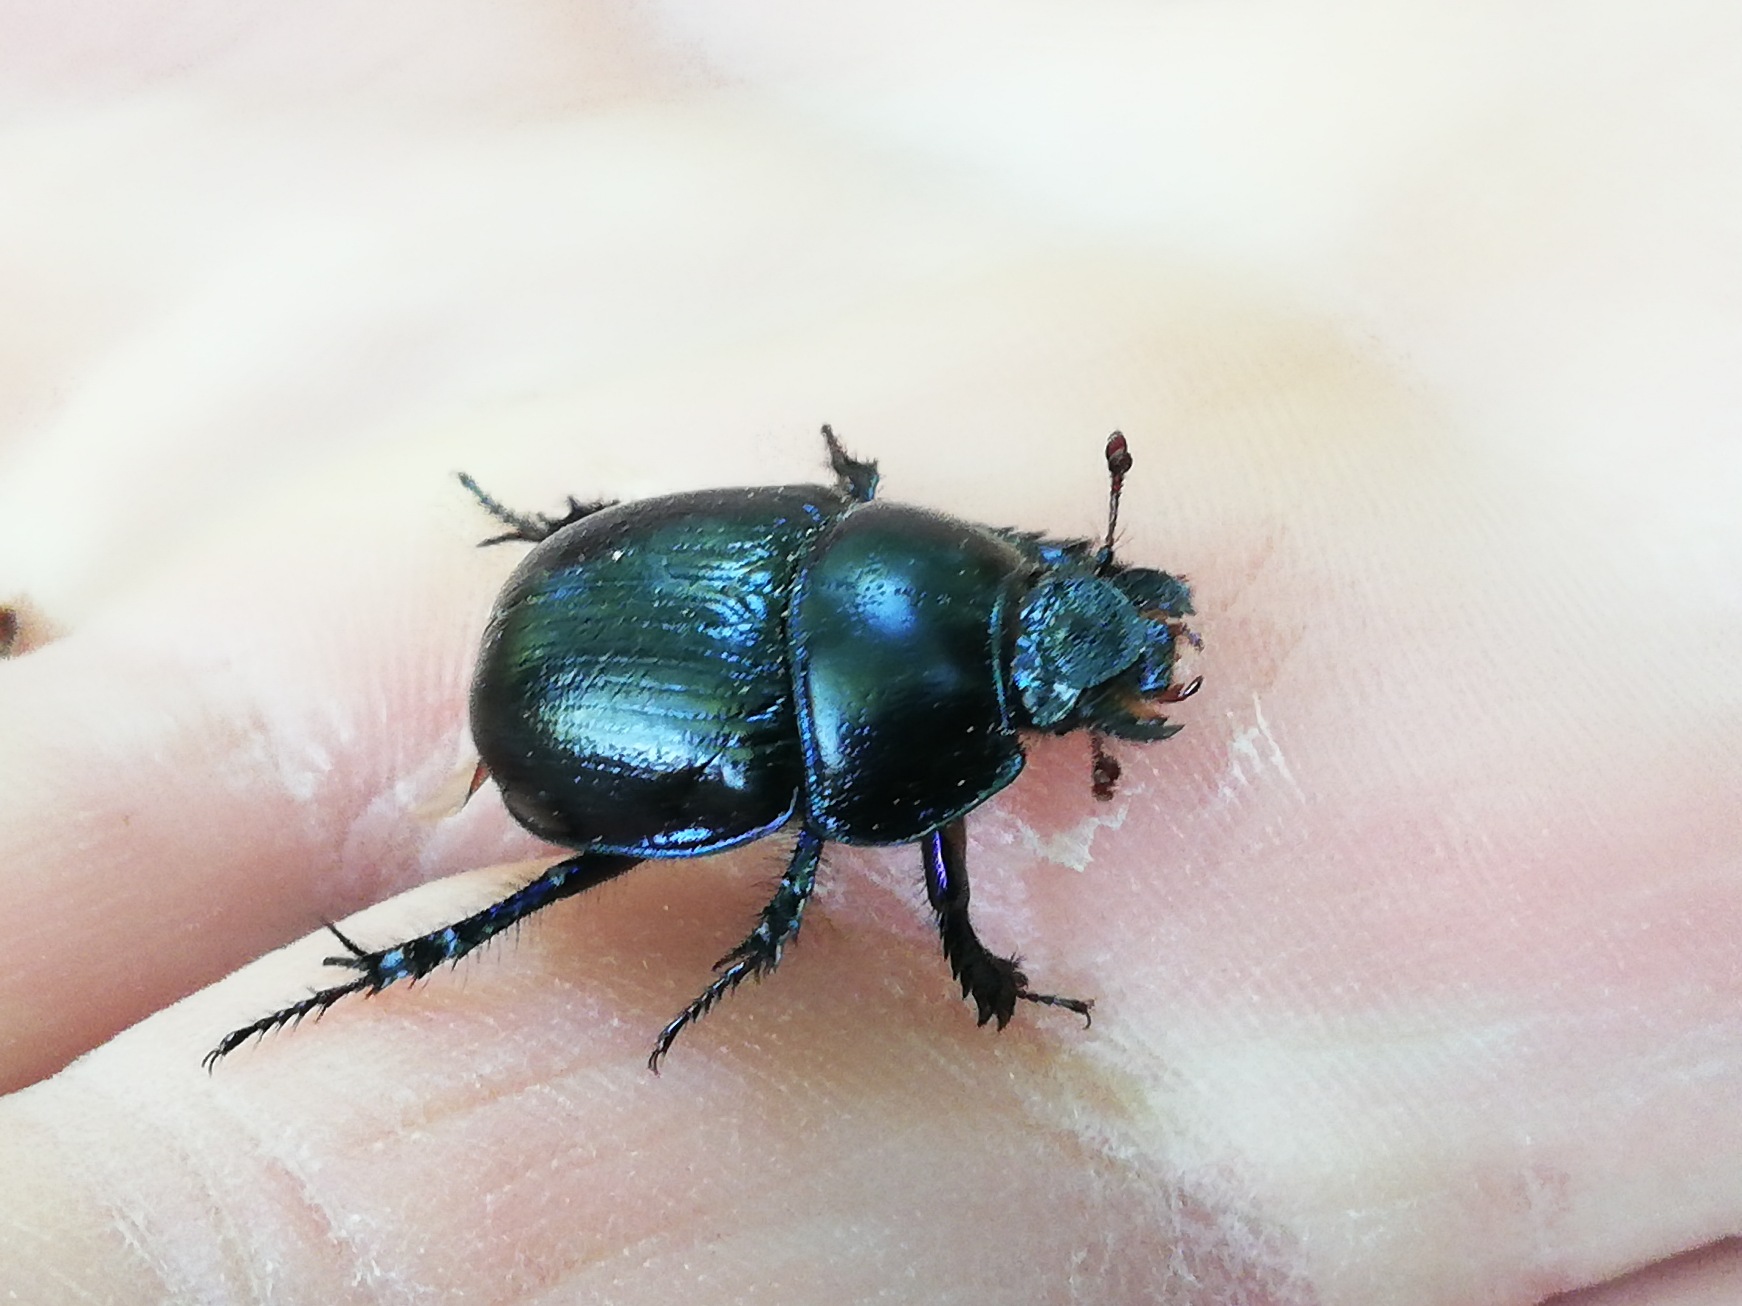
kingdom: Animalia
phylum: Arthropoda
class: Insecta
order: Coleoptera
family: Geotrupidae
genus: Anoplotrupes
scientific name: Anoplotrupes stercorosus
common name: Skovskarnbasse
